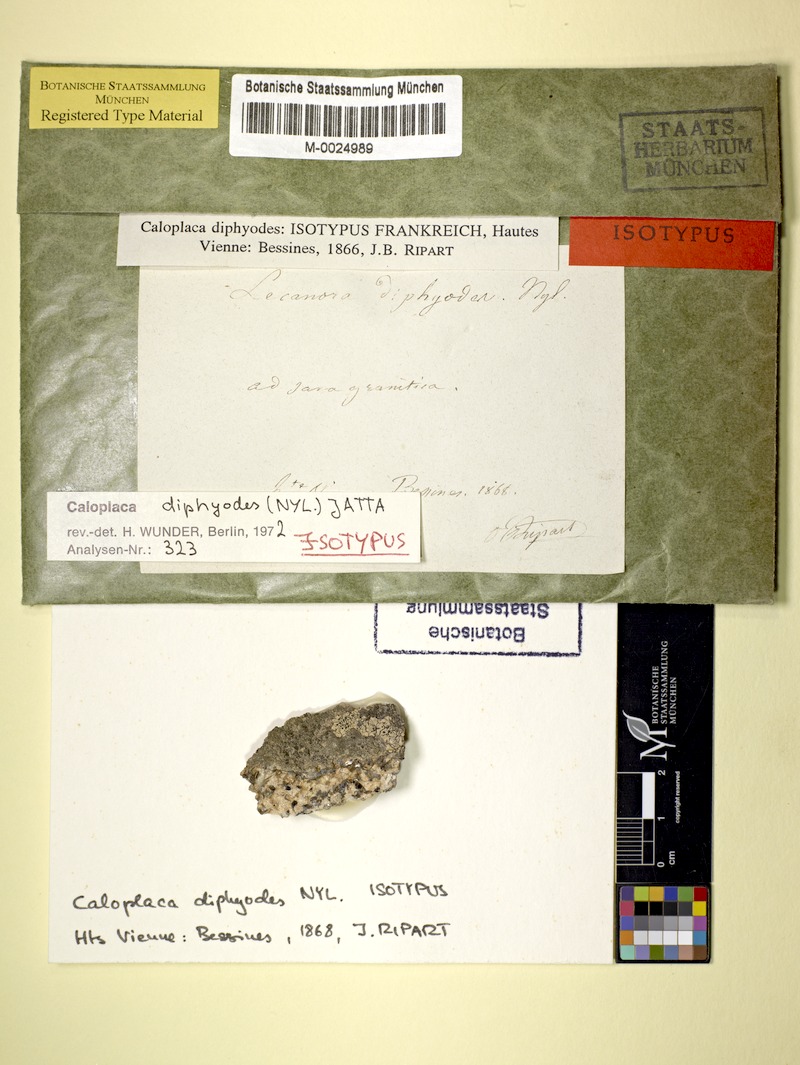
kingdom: Fungi
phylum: Ascomycota
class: Lecanoromycetes
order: Teloschistales
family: Teloschistaceae
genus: Kuettlingeria
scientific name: Kuettlingeria diphyodes
